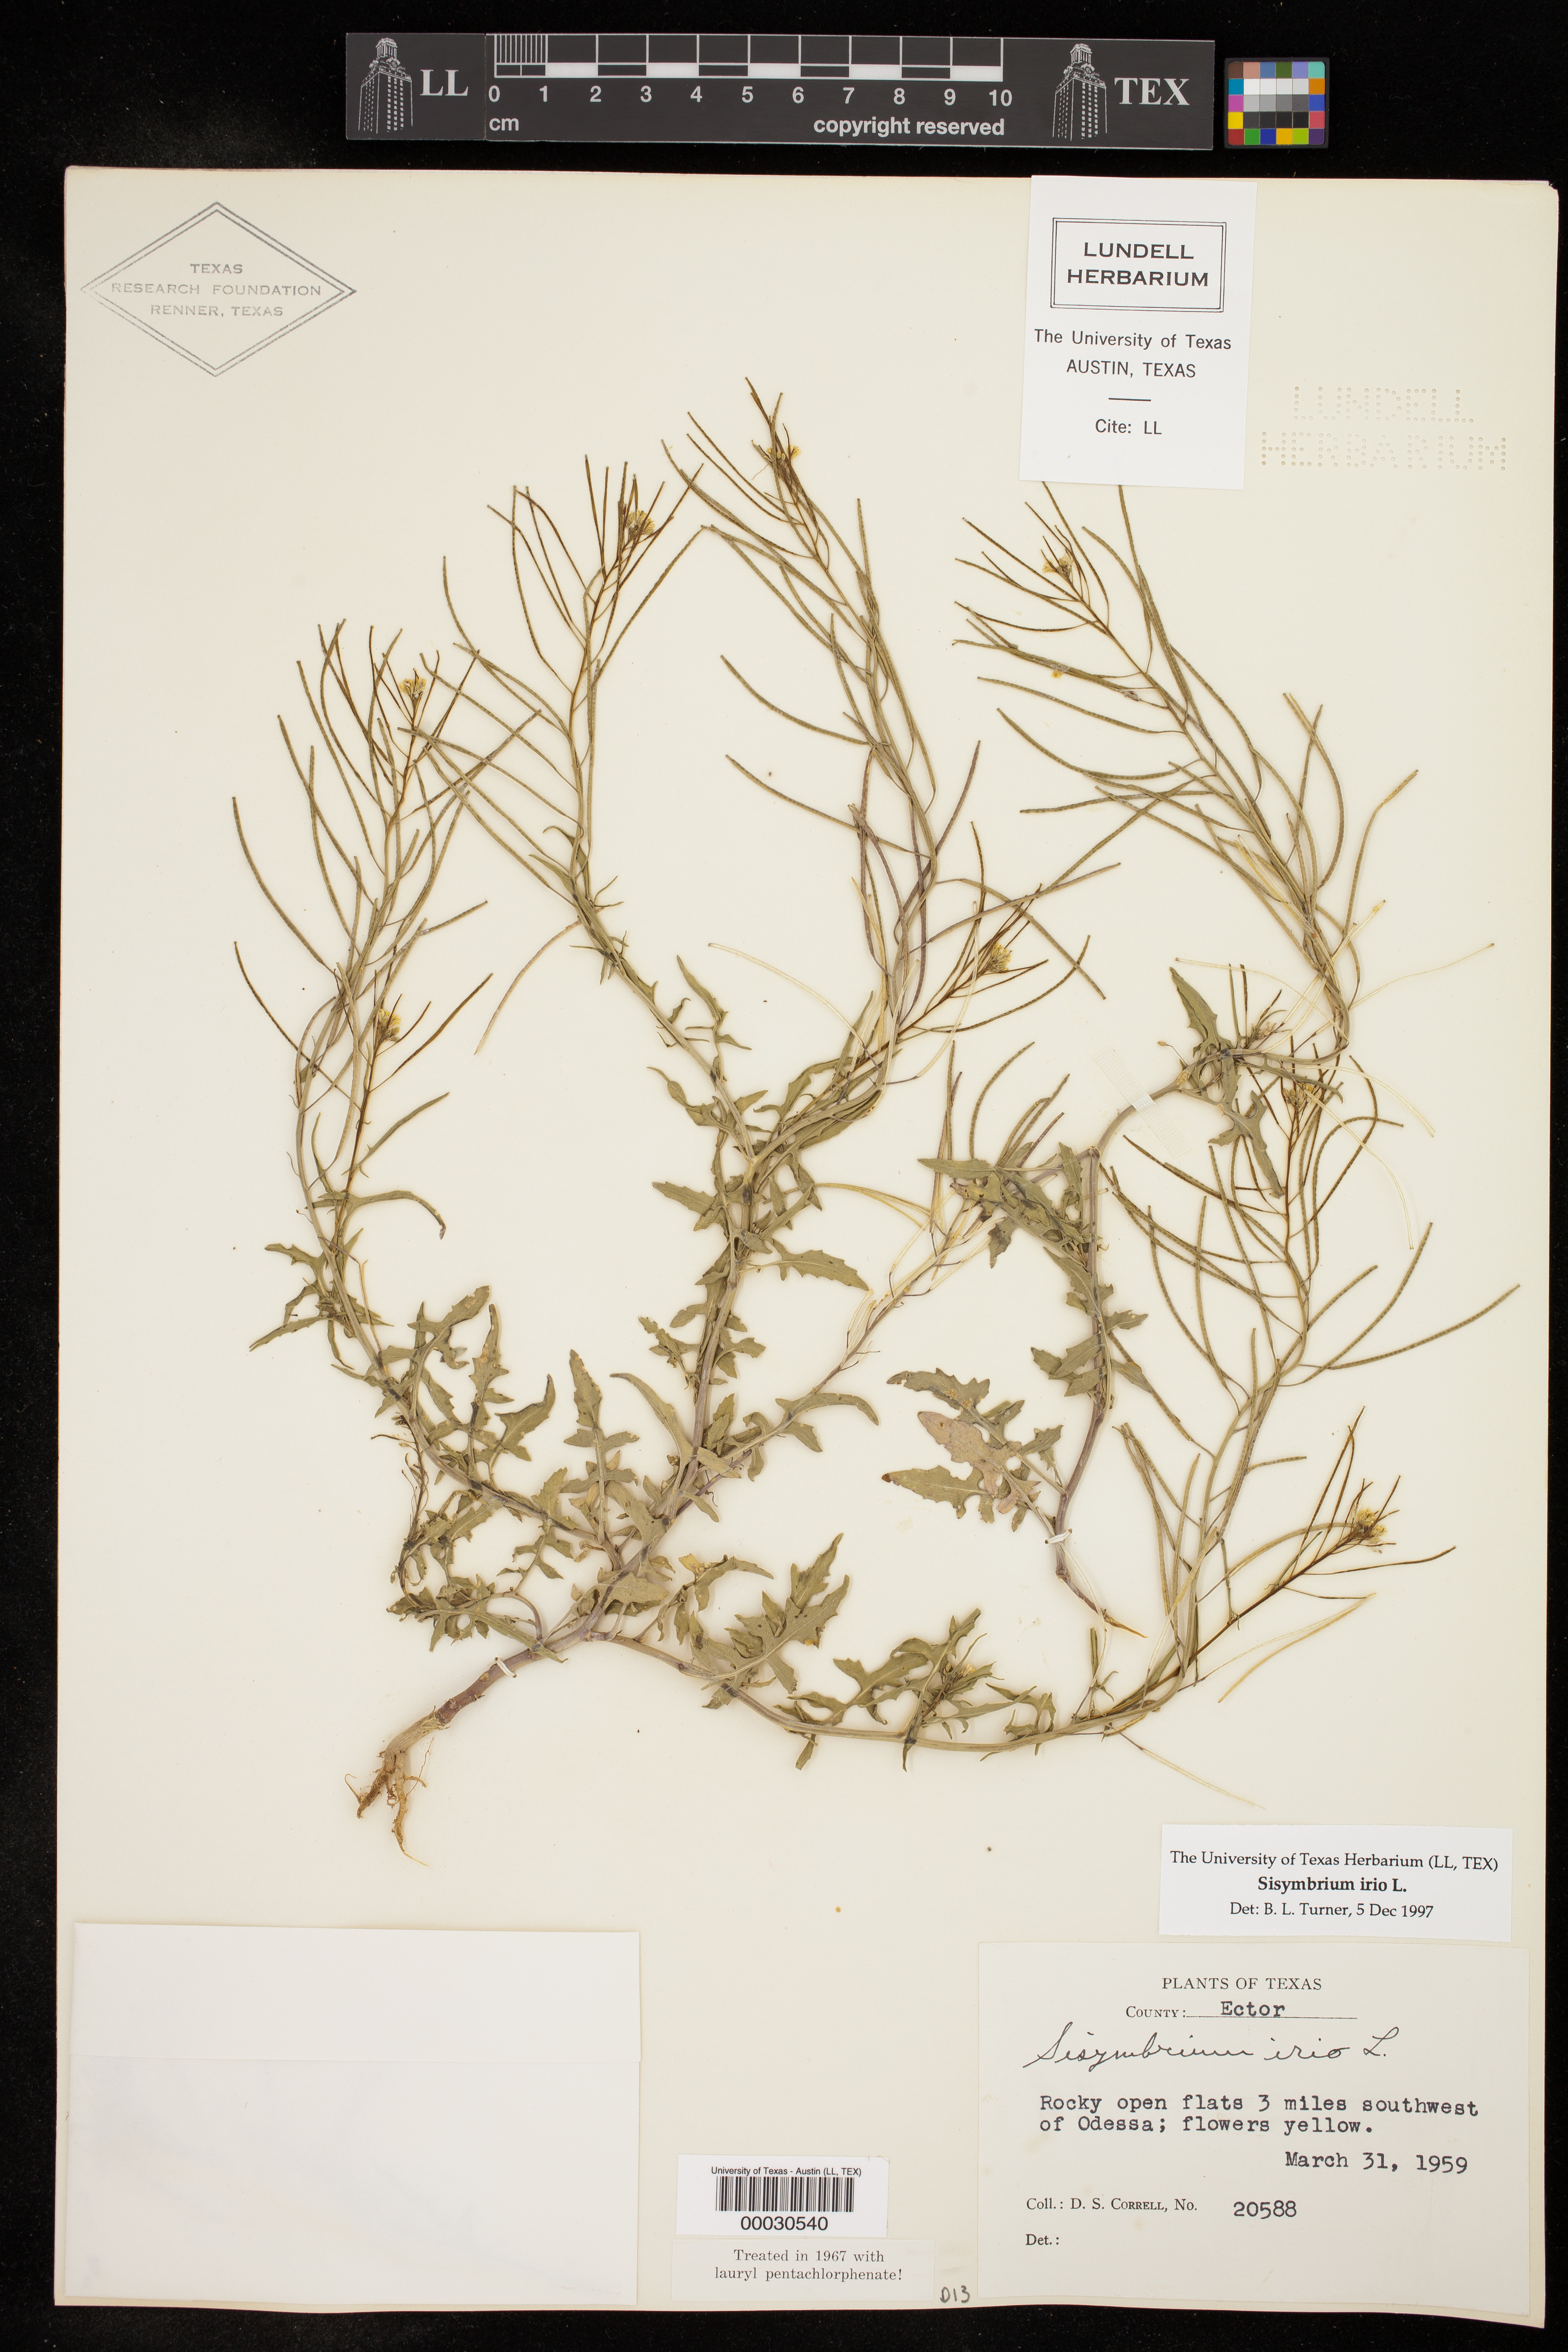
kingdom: Plantae
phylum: Tracheophyta
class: Magnoliopsida
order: Brassicales
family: Brassicaceae
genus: Sisymbrium
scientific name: Sisymbrium irio
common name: London rocket
